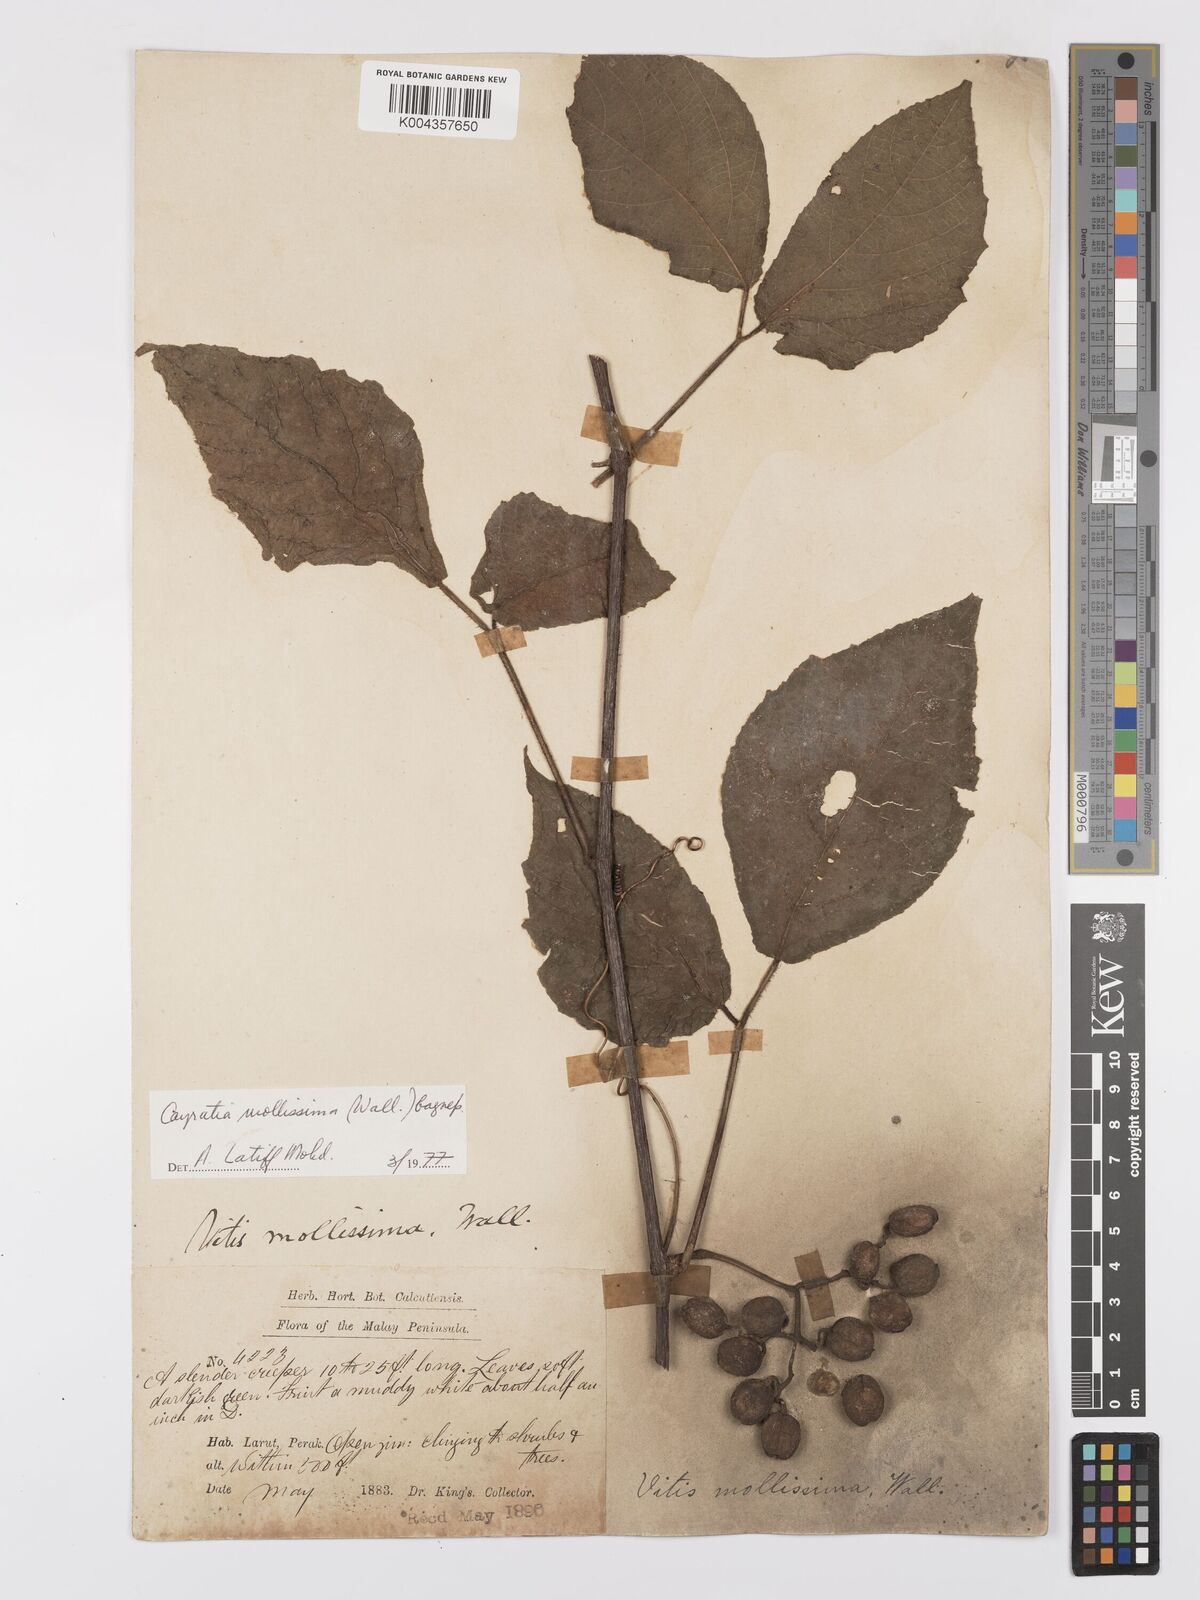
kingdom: Plantae
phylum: Tracheophyta
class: Magnoliopsida
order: Vitales
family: Vitaceae
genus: Cayratia
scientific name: Cayratia mollissima
